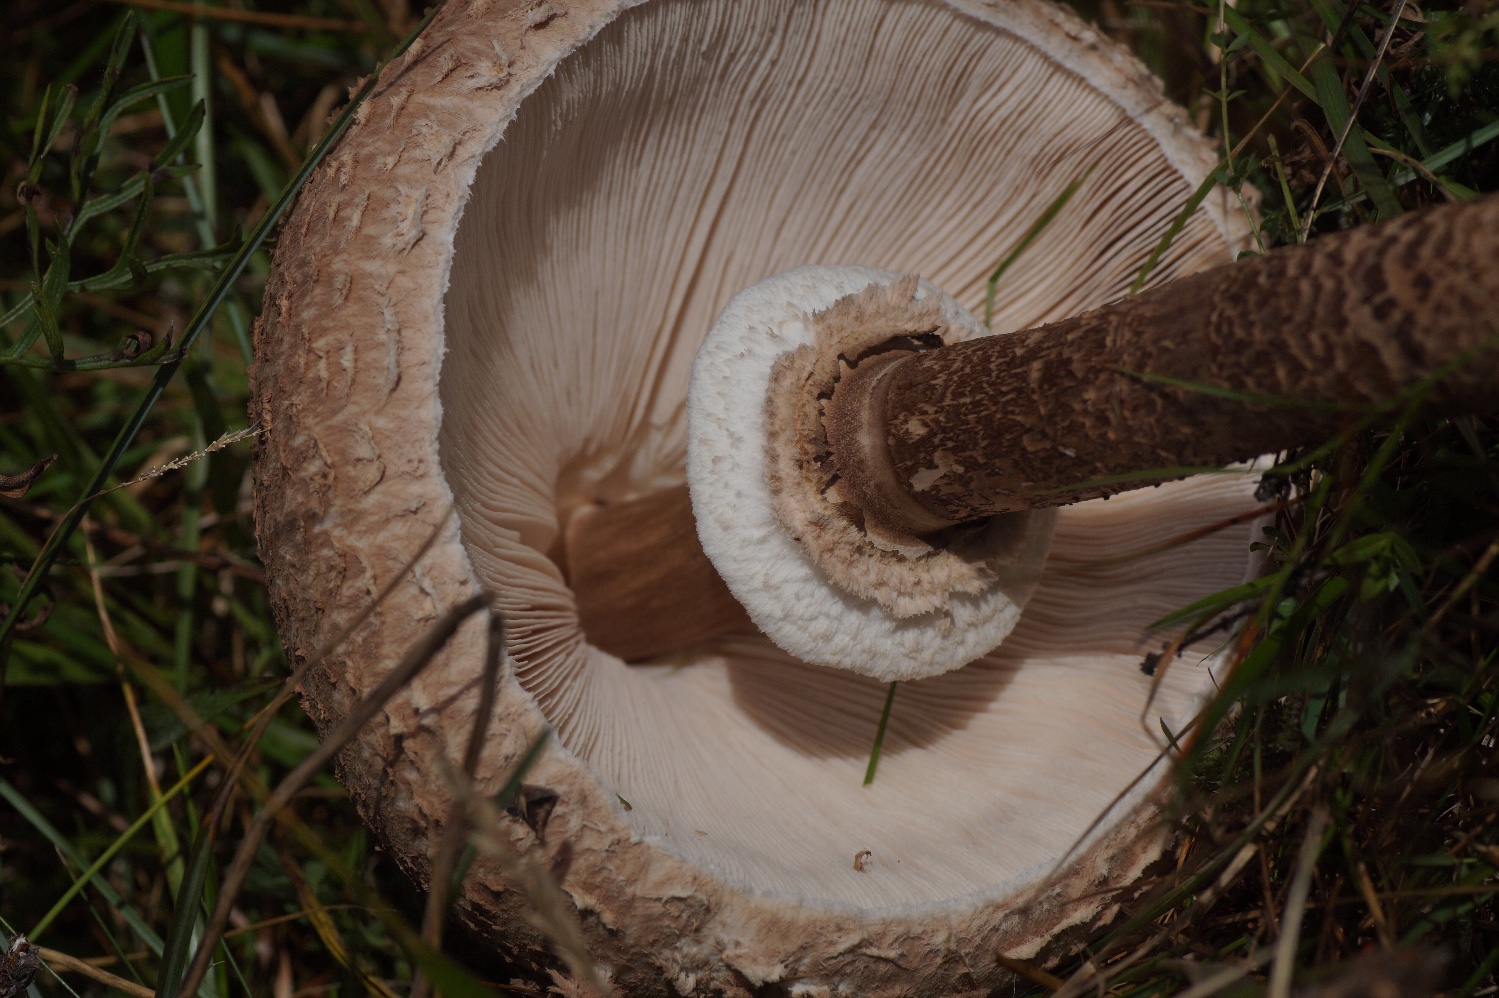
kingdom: Fungi
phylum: Basidiomycota
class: Agaricomycetes
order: Agaricales
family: Agaricaceae
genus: Macrolepiota
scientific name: Macrolepiota procera
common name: stor kæmpeparasolhat
